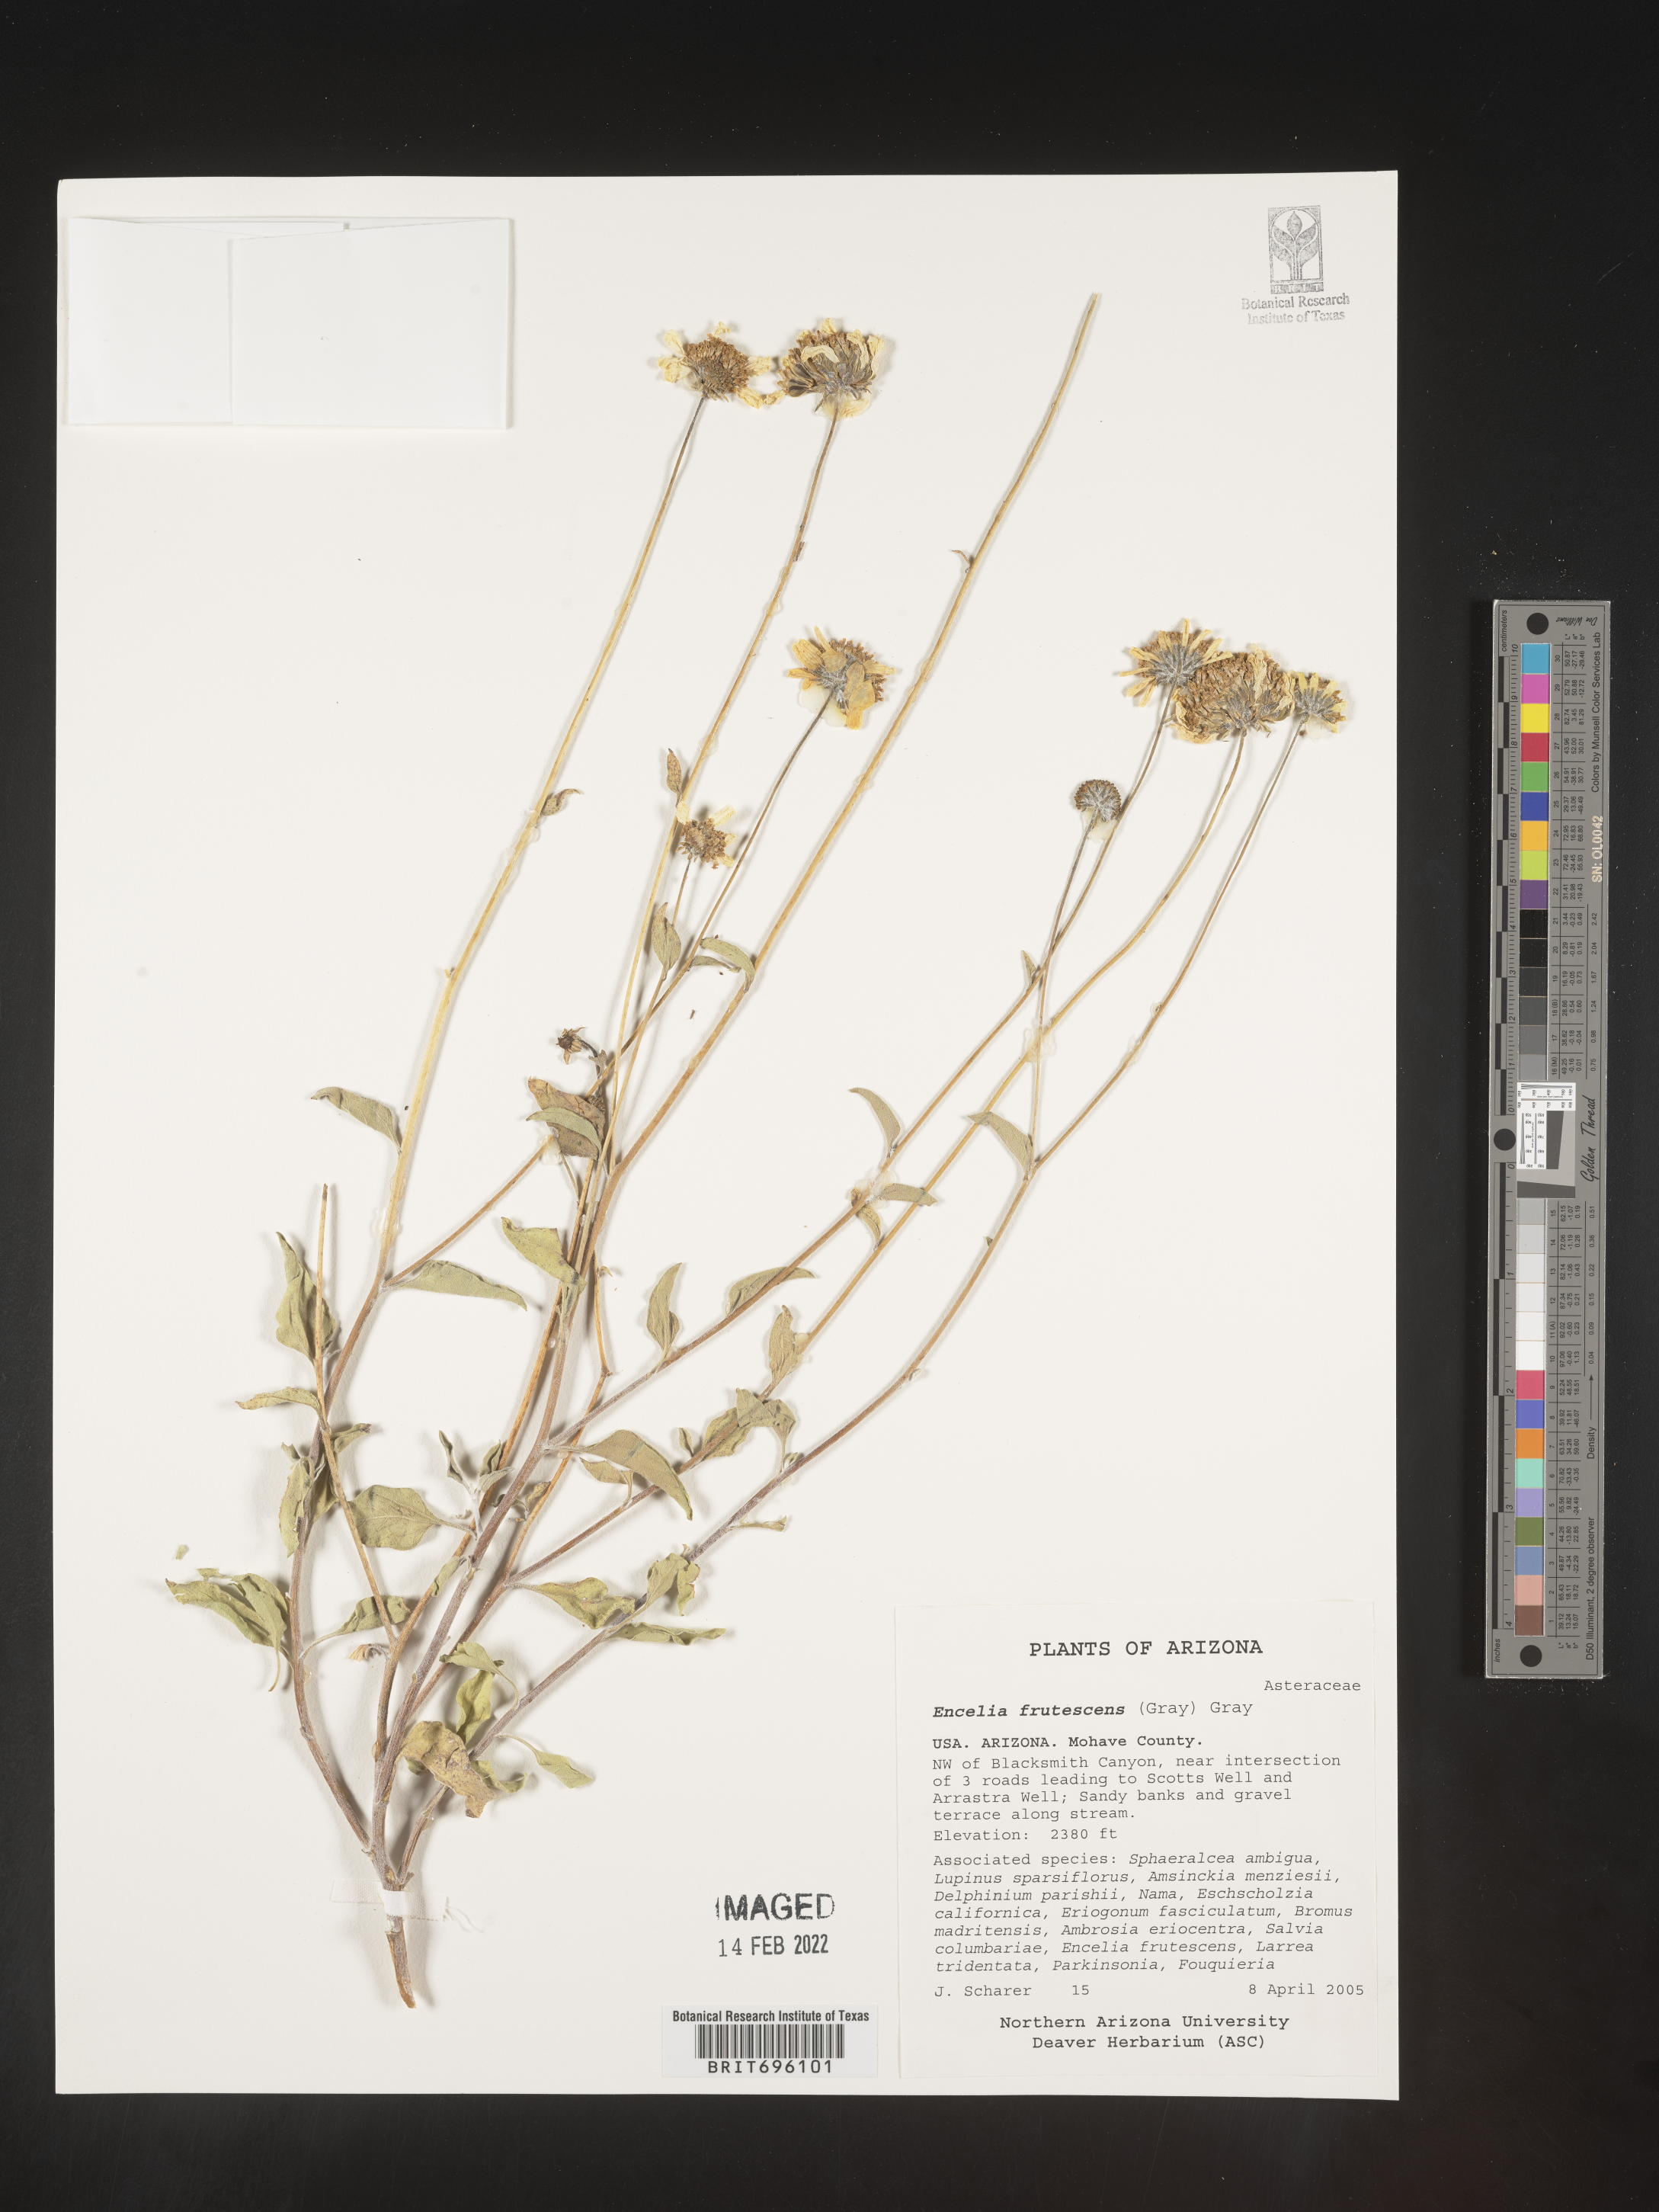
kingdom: Plantae
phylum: Tracheophyta
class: Magnoliopsida
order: Asterales
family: Asteraceae
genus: Encelia
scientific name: Encelia frutescens
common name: Bush encelia
